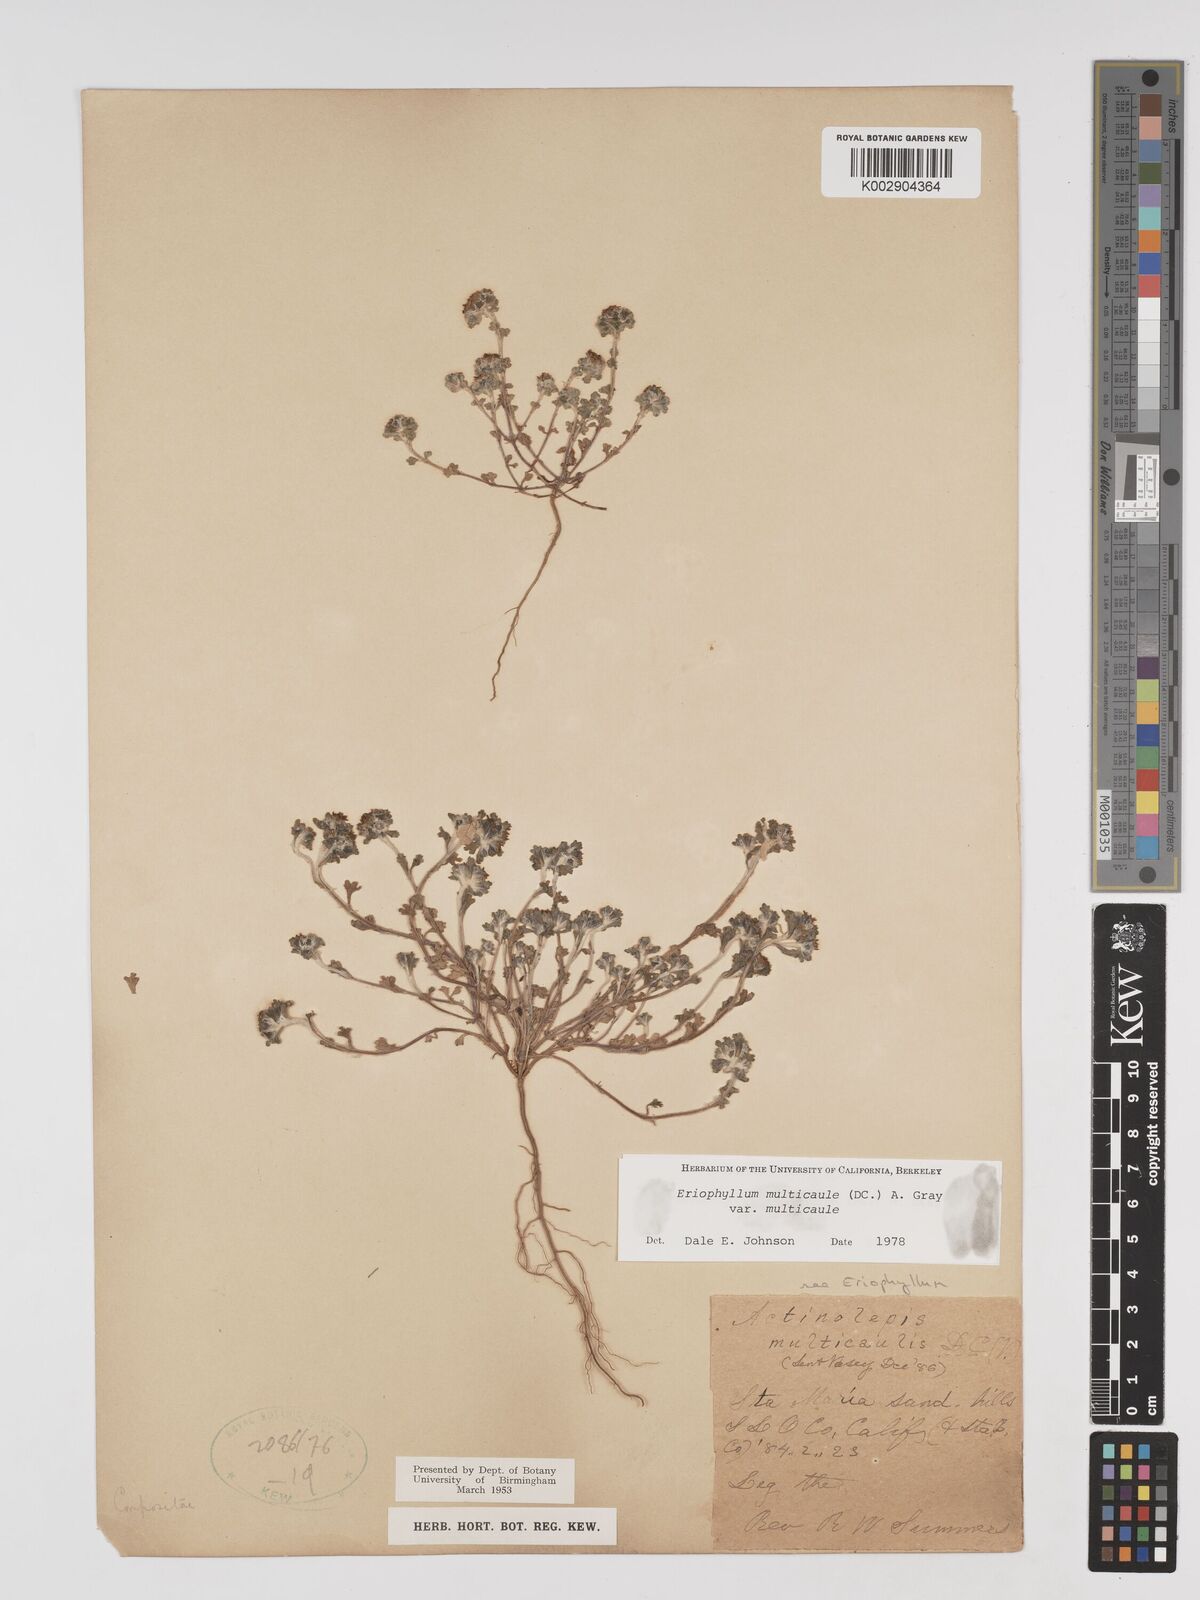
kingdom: Plantae
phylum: Tracheophyta
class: Magnoliopsida
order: Asterales
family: Asteraceae
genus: Eriophyllum
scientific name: Eriophyllum multicaule
